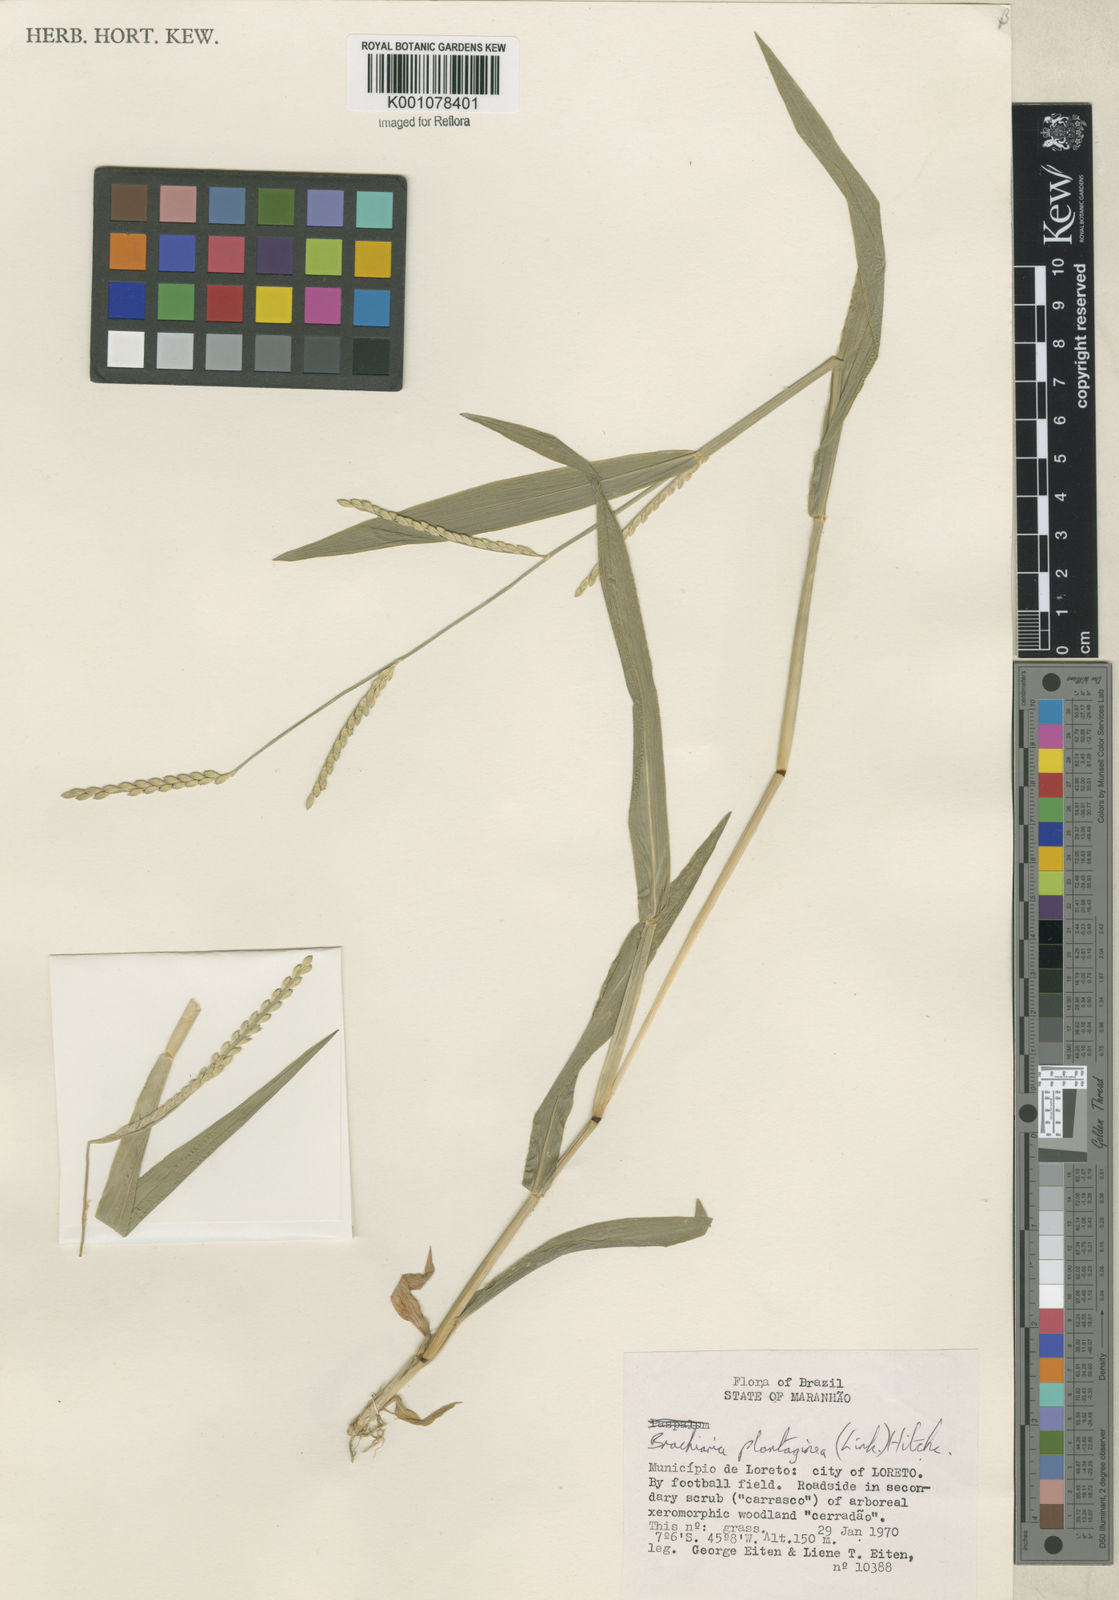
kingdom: Plantae
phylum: Tracheophyta
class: Liliopsida
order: Poales
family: Poaceae
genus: Urochloa
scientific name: Urochloa plantaginea
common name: Plantain signalgrass
